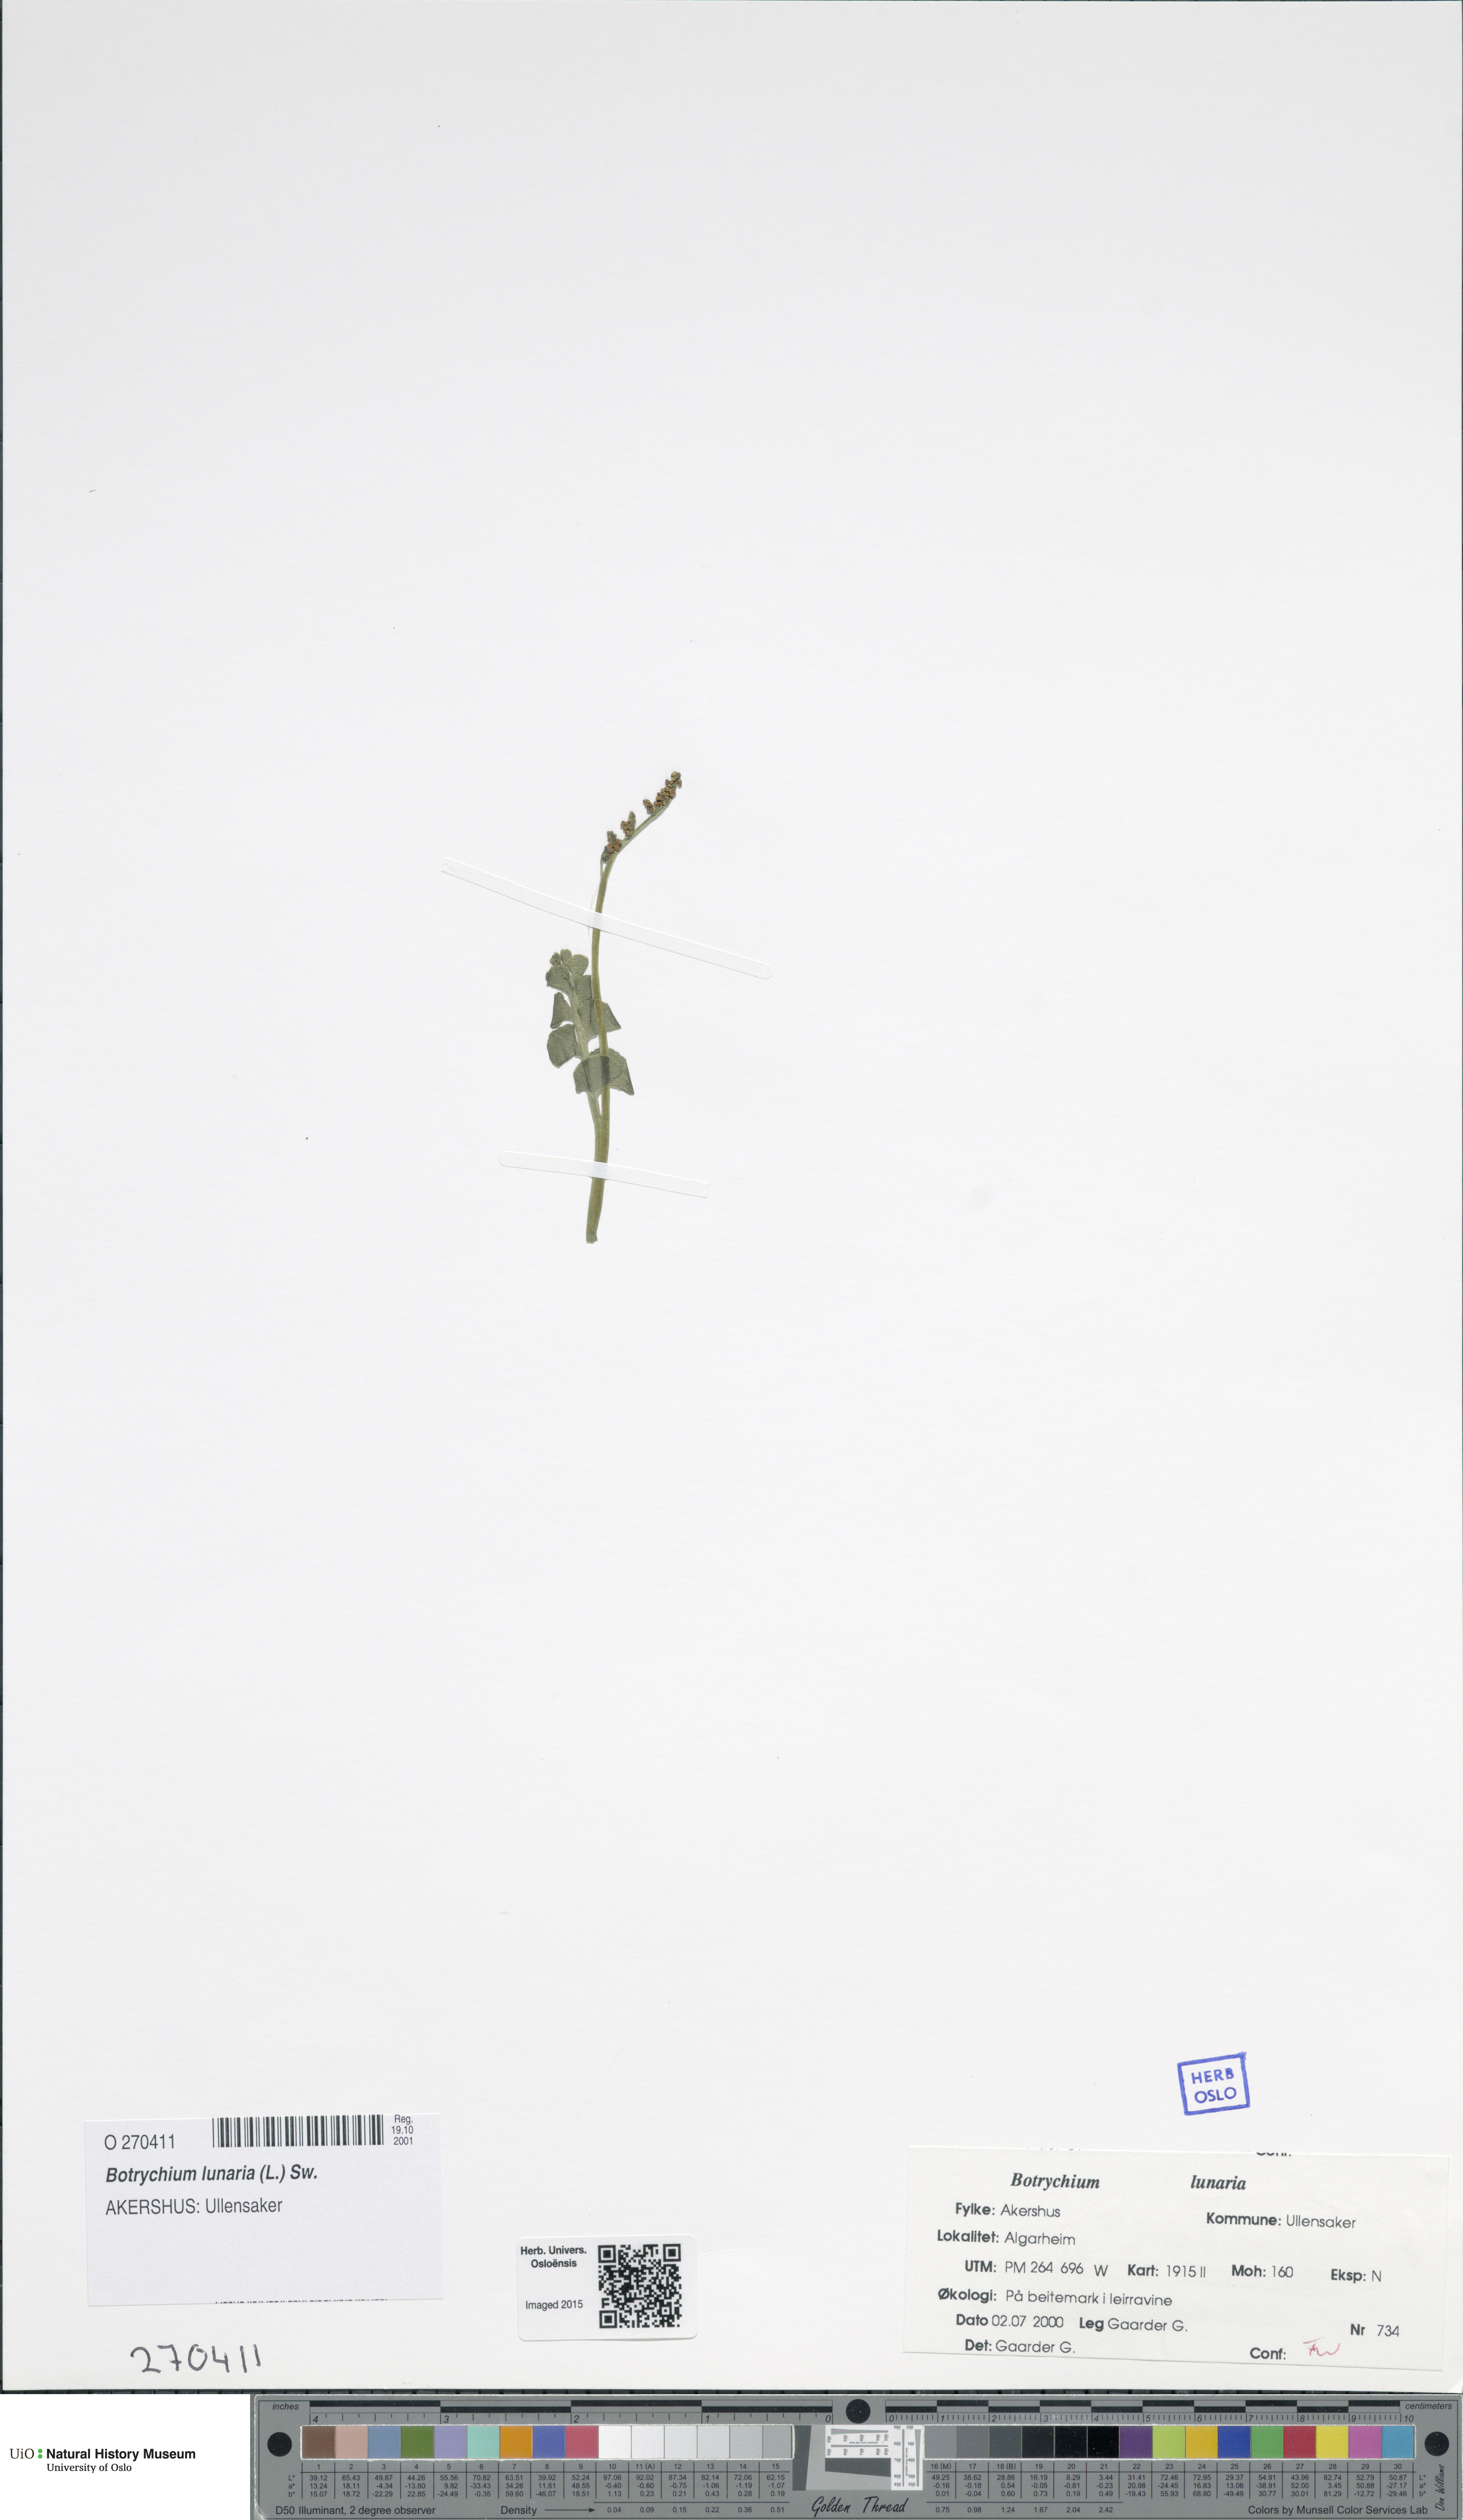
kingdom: Plantae
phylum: Tracheophyta
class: Polypodiopsida
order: Ophioglossales
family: Ophioglossaceae
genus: Botrychium
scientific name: Botrychium lunaria
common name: Moonwort
